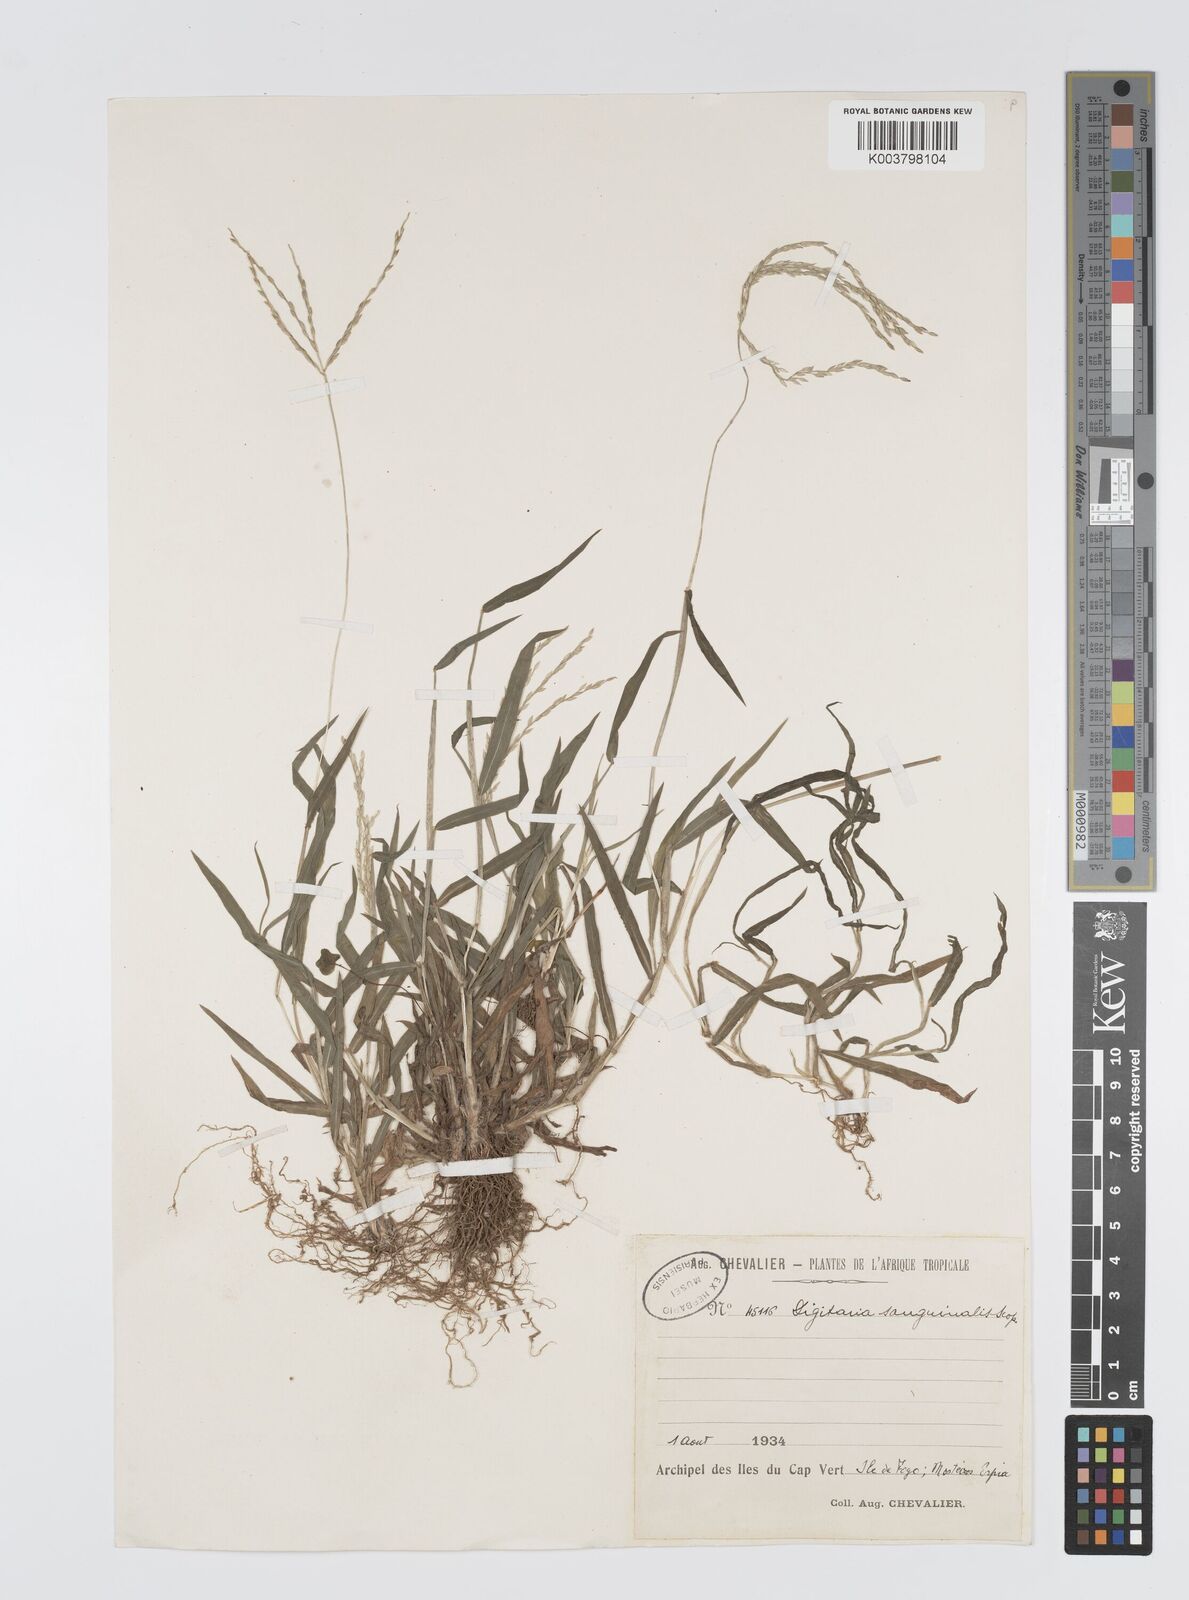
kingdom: Plantae
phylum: Tracheophyta
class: Liliopsida
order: Poales
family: Poaceae
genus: Digitaria
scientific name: Digitaria
